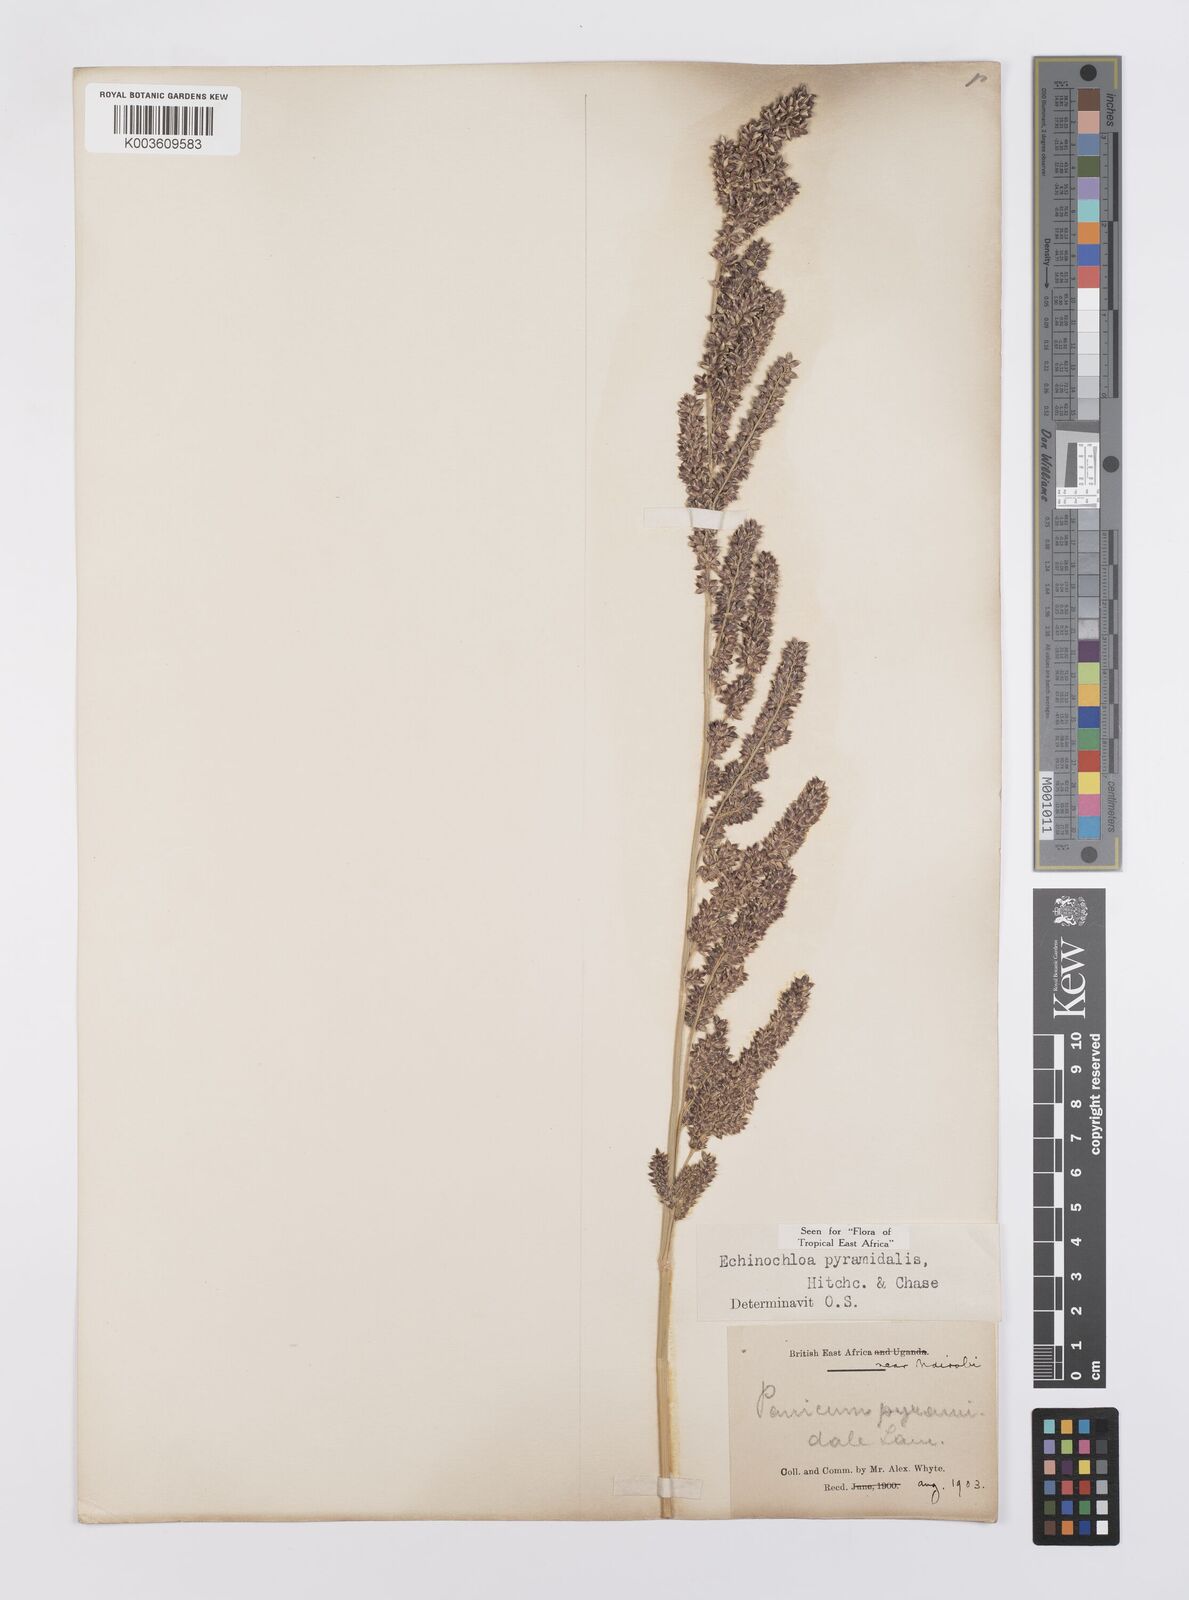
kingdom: Plantae
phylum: Tracheophyta
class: Liliopsida
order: Poales
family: Poaceae
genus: Echinochloa
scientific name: Echinochloa pyramidalis
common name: Antelope grass
